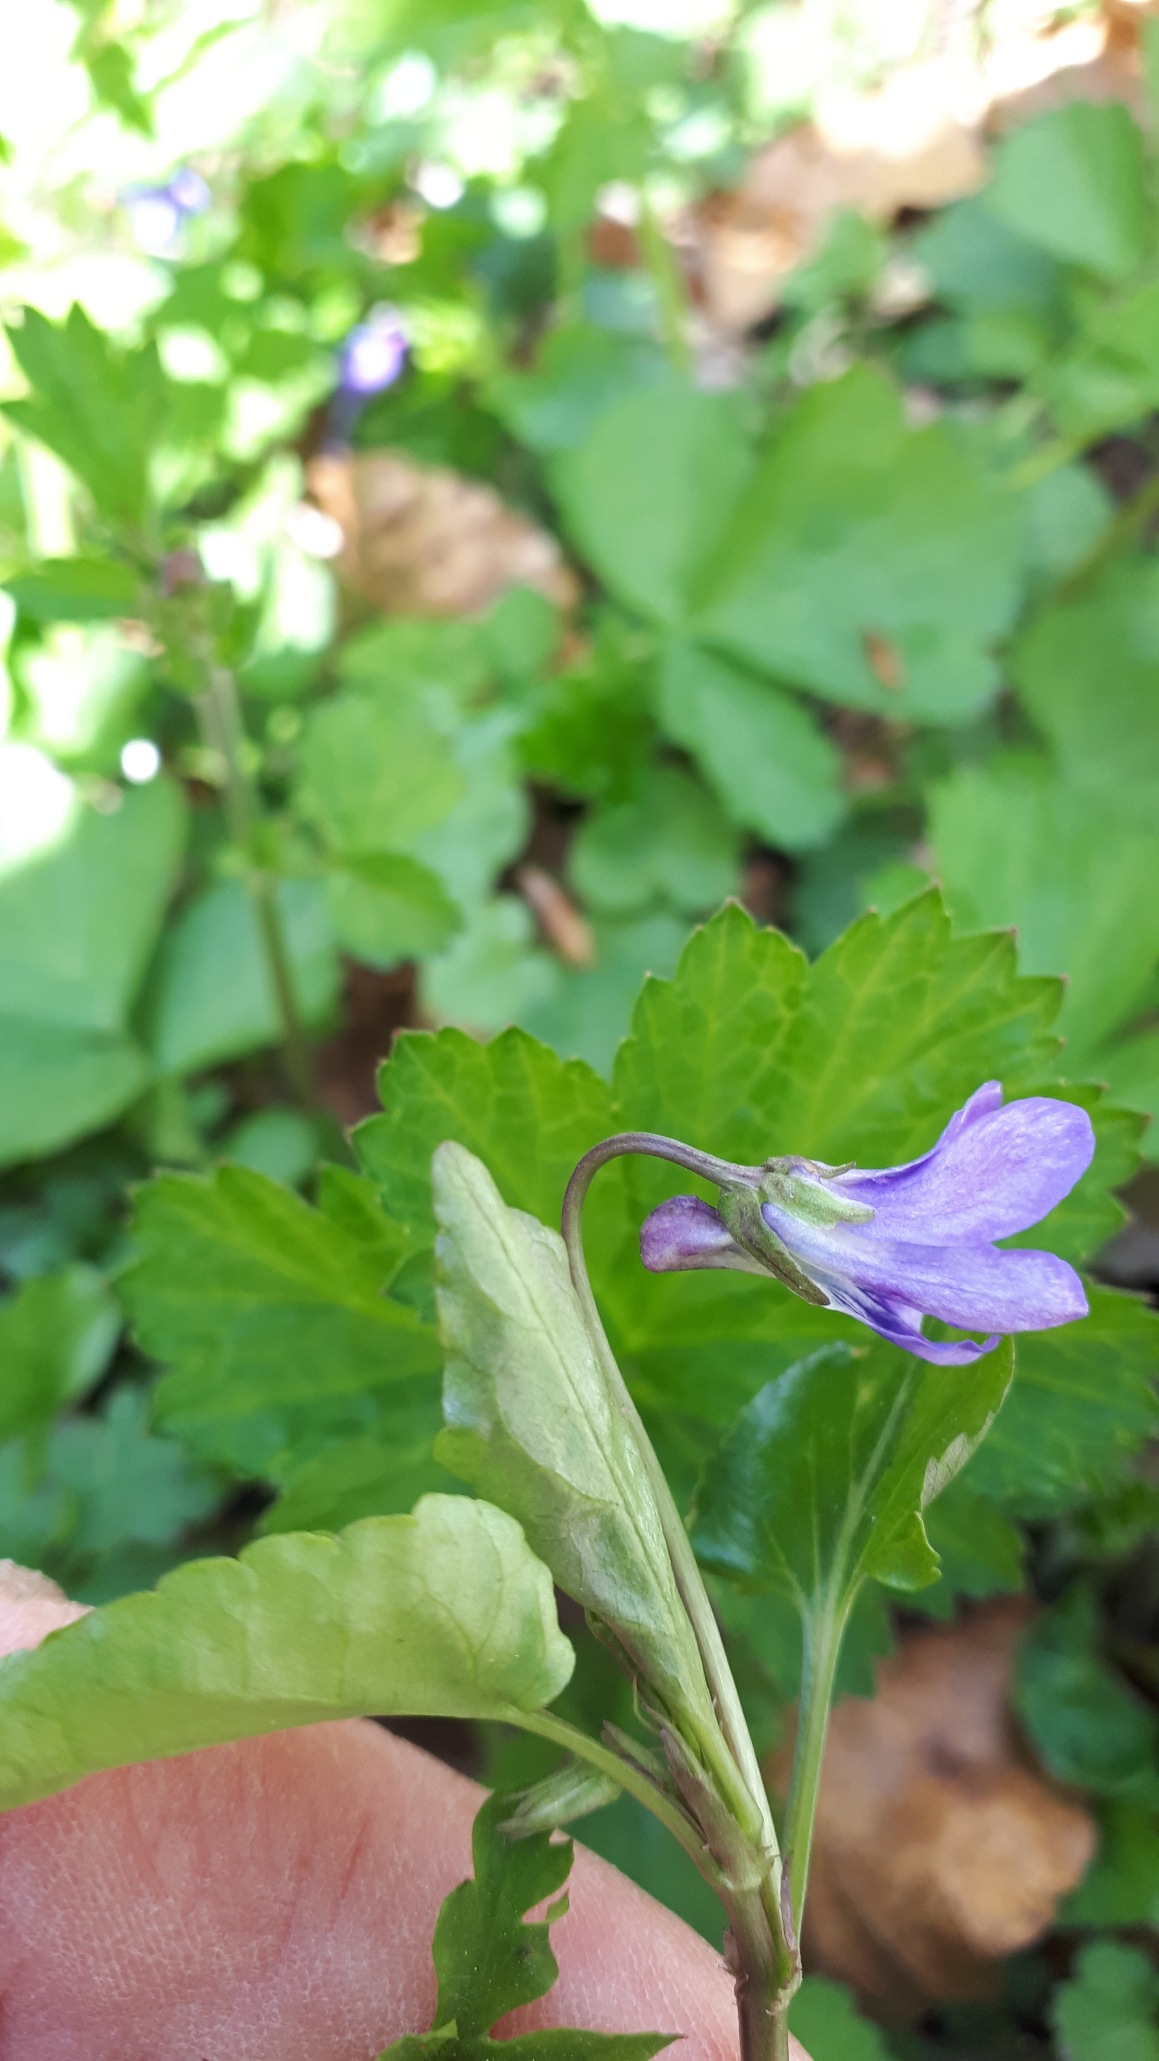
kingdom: Plantae
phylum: Tracheophyta
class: Magnoliopsida
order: Malpighiales
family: Violaceae
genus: Viola
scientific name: Viola reichenbachiana
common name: Skov-viol
